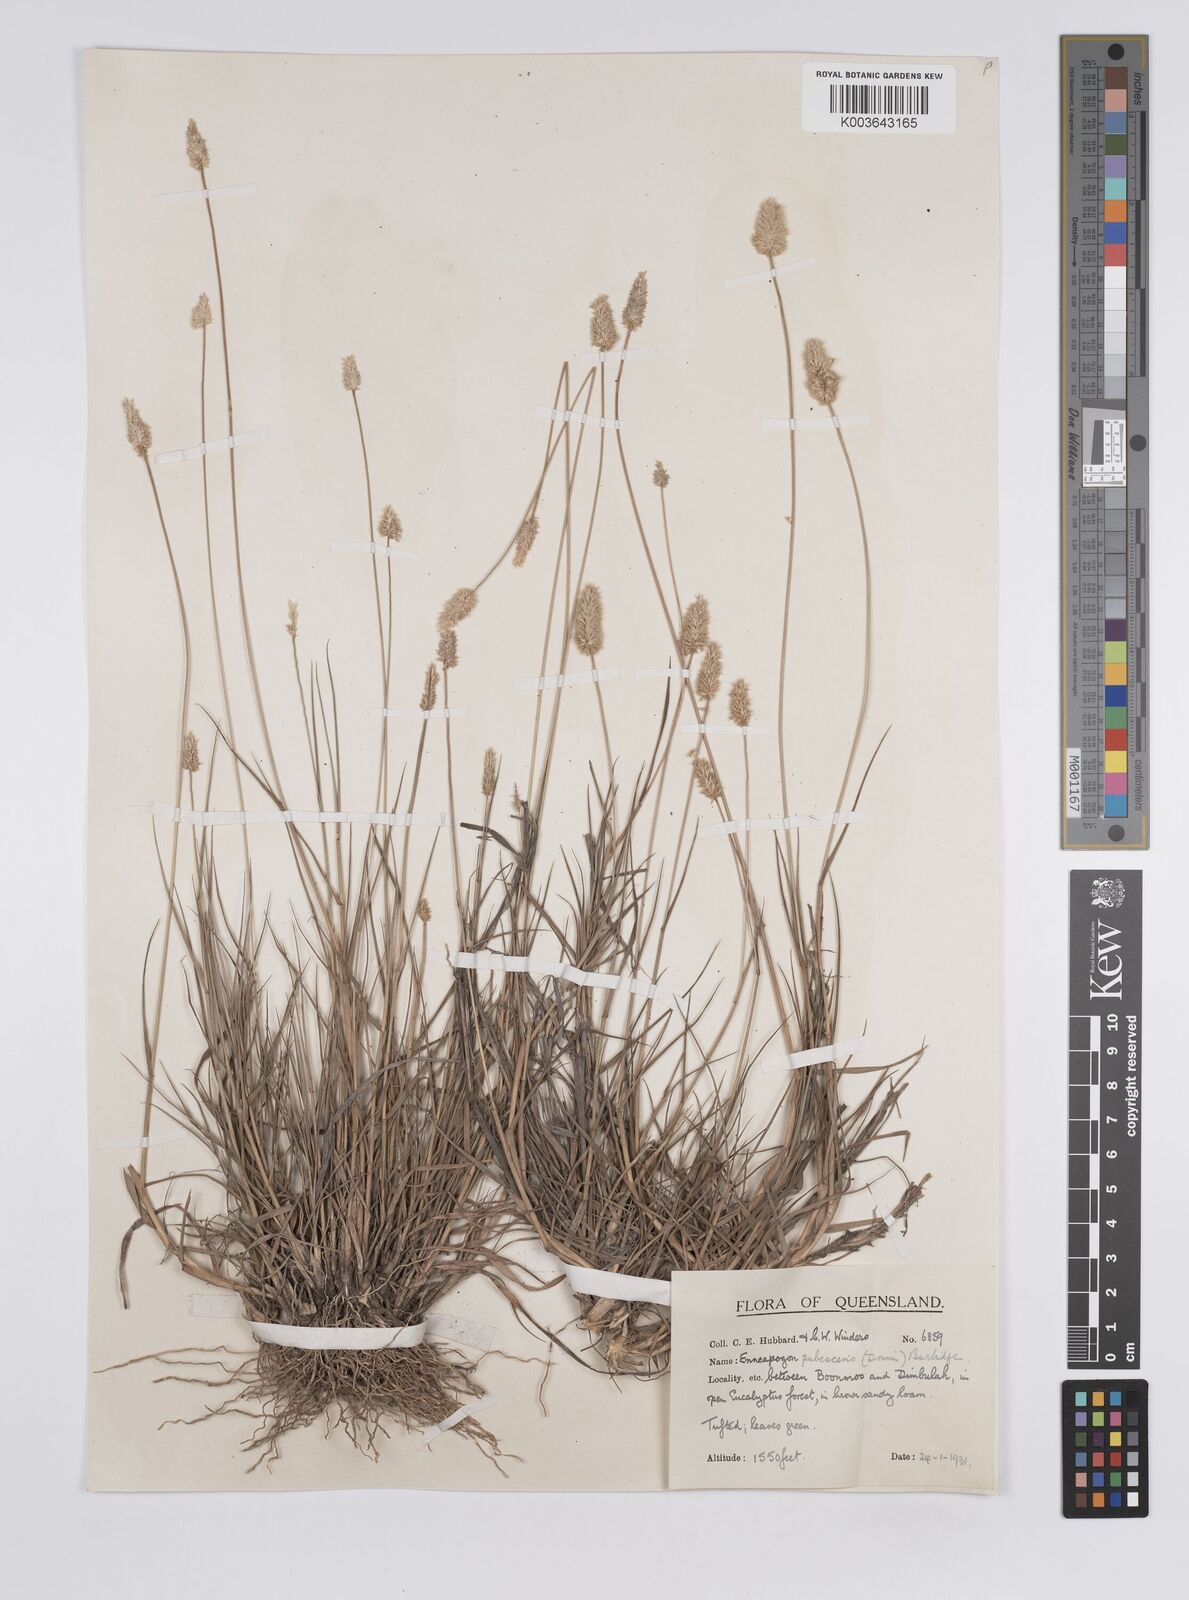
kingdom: Plantae
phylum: Tracheophyta
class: Liliopsida
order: Poales
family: Poaceae
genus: Enneapogon
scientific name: Enneapogon lindleyanus
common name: Conetop nineawn
